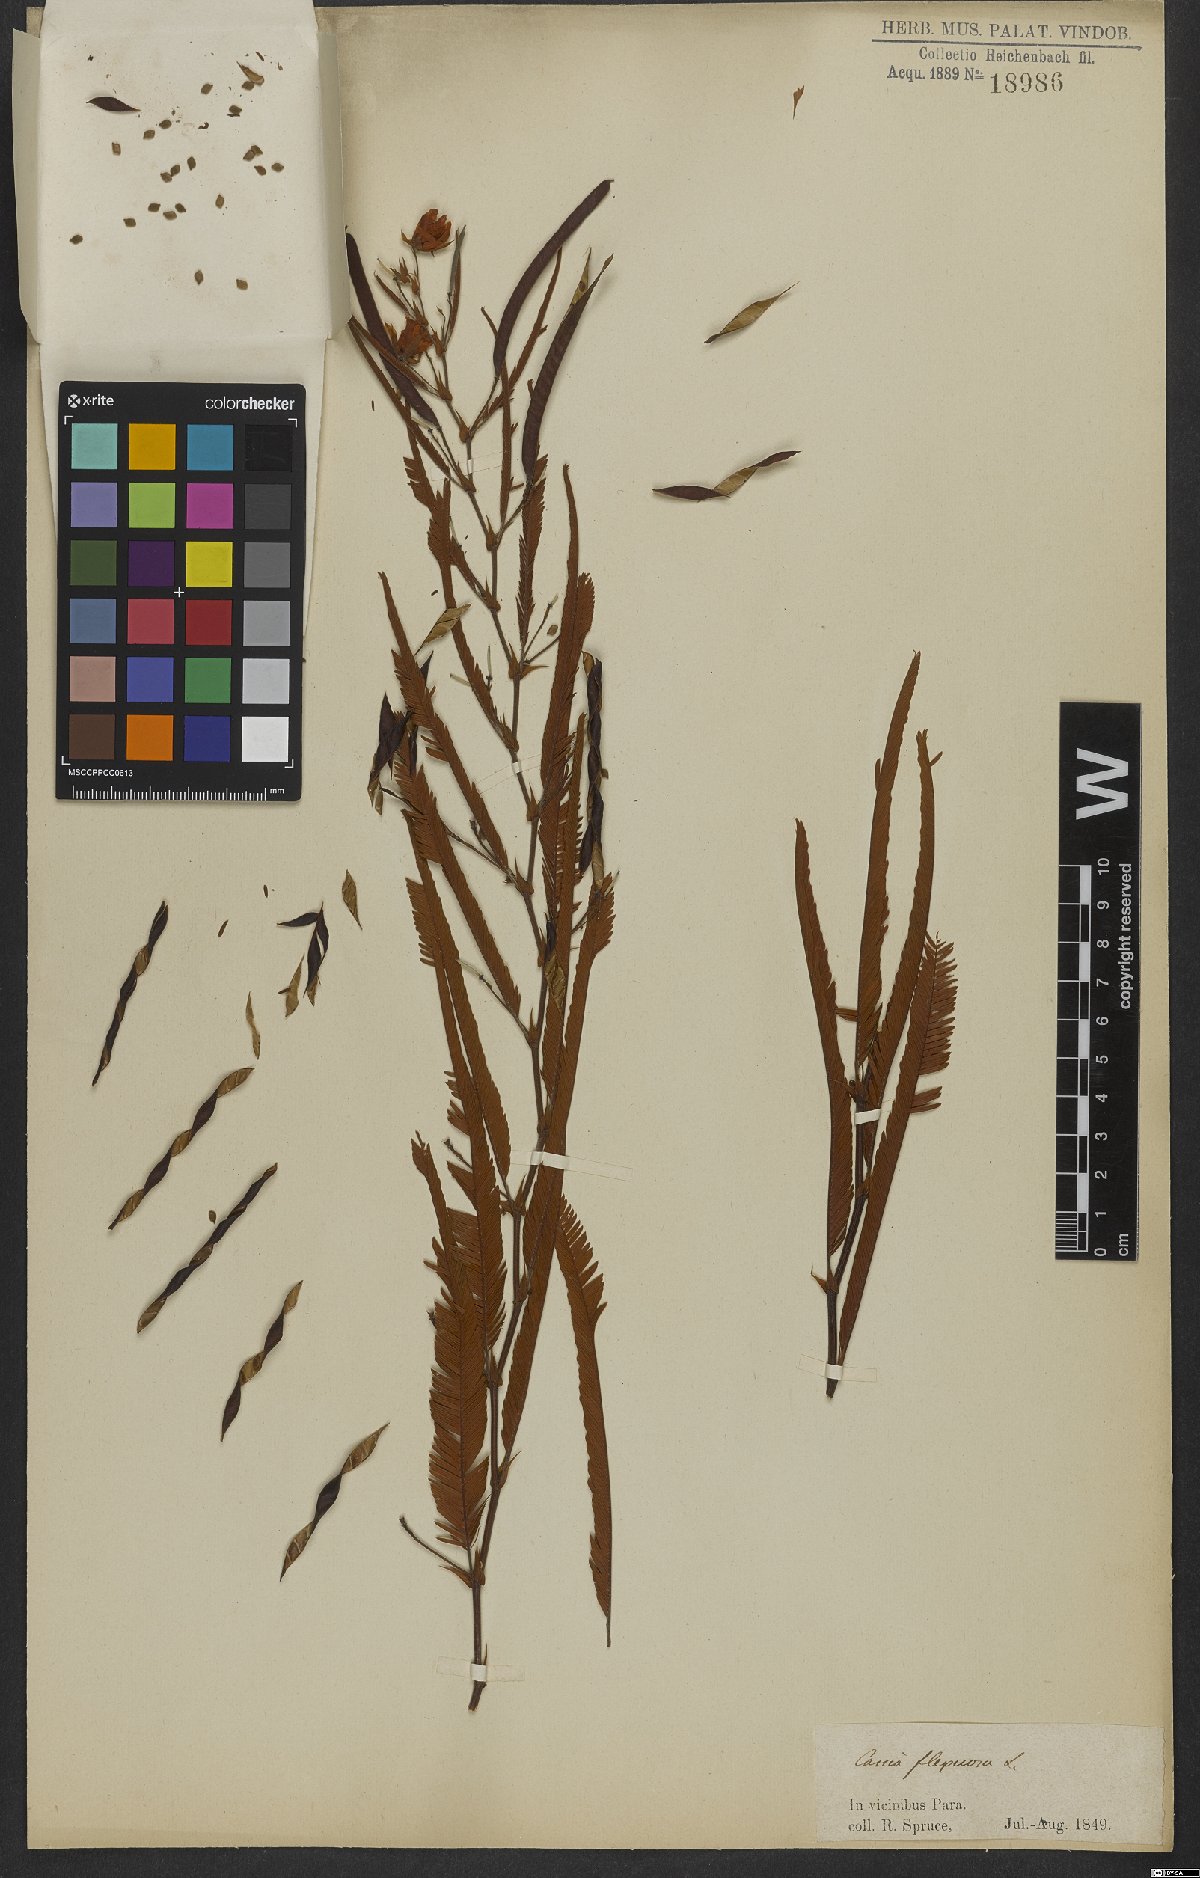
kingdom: Plantae
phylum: Tracheophyta
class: Magnoliopsida
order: Fabales
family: Fabaceae
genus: Chamaecrista
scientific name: Chamaecrista flexuosa
